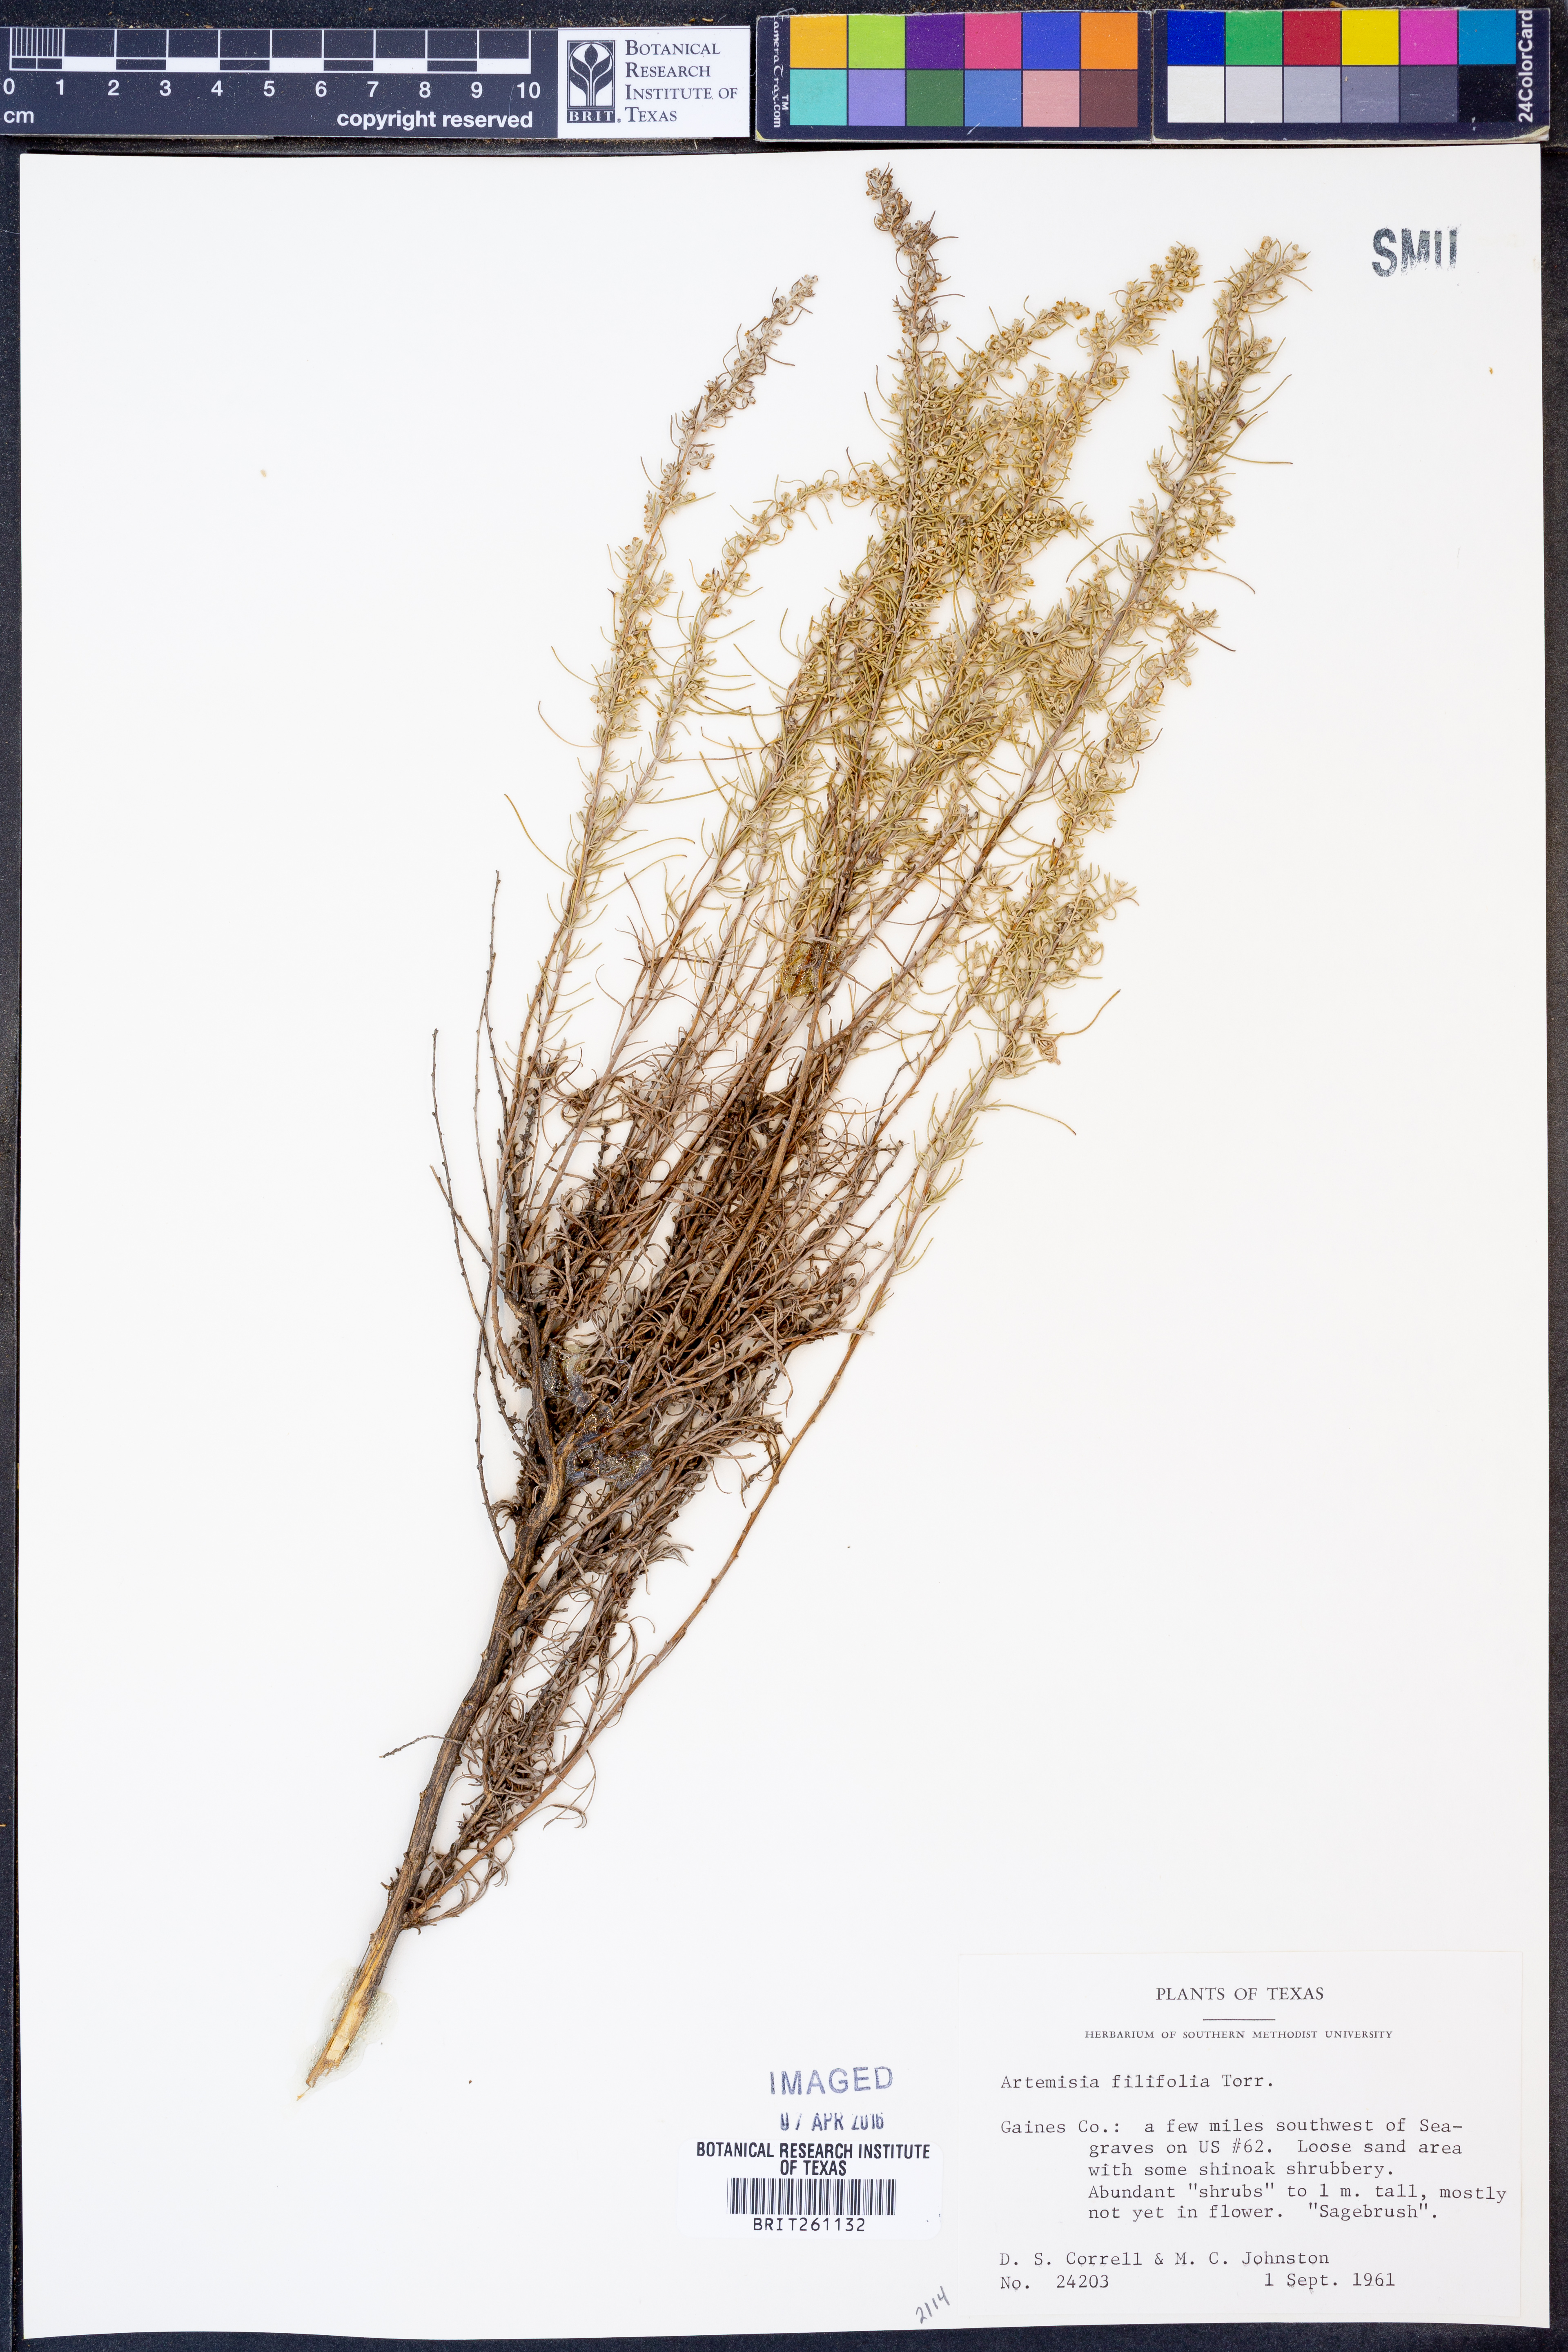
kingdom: Plantae
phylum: Tracheophyta
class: Magnoliopsida
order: Asterales
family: Asteraceae
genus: Artemisia
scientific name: Artemisia filifolia
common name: Sand-sage
